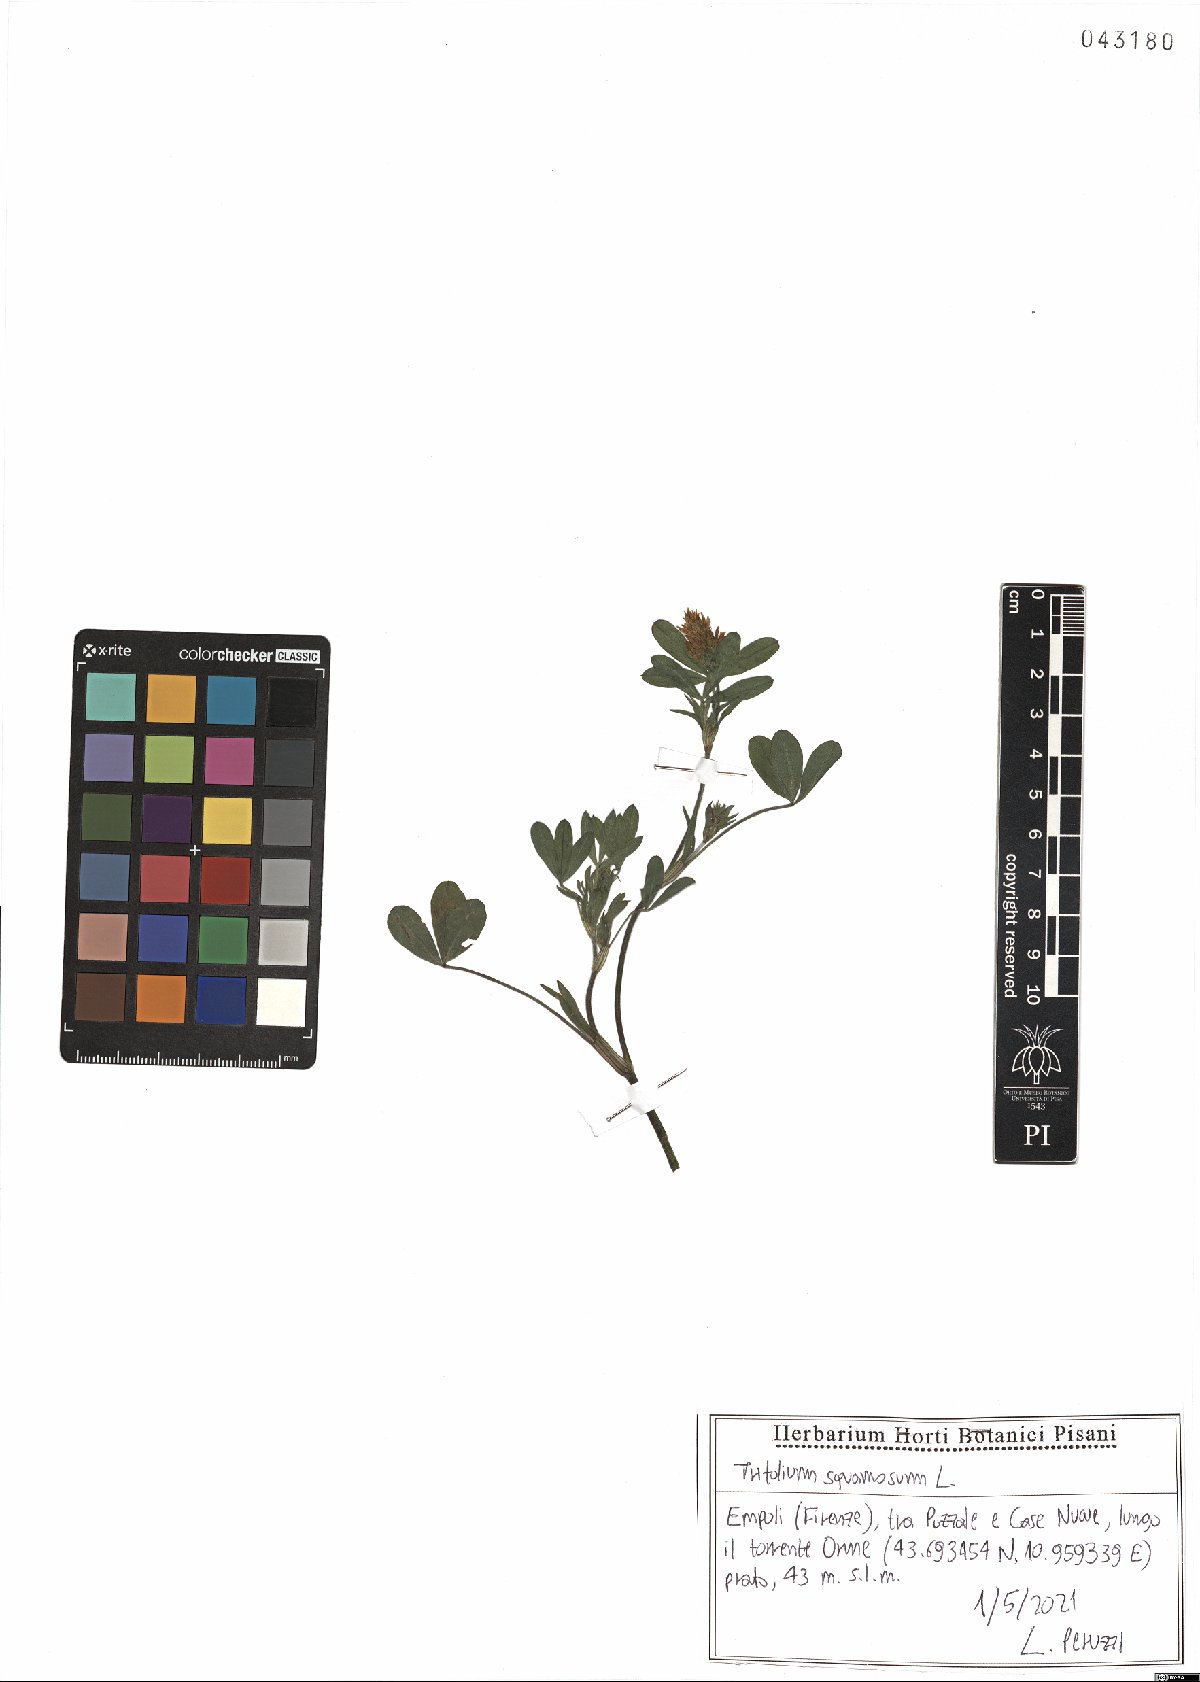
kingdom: Plantae
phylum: Tracheophyta
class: Magnoliopsida
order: Fabales
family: Fabaceae
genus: Trifolium
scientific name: Trifolium squamosum
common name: Sea clover
